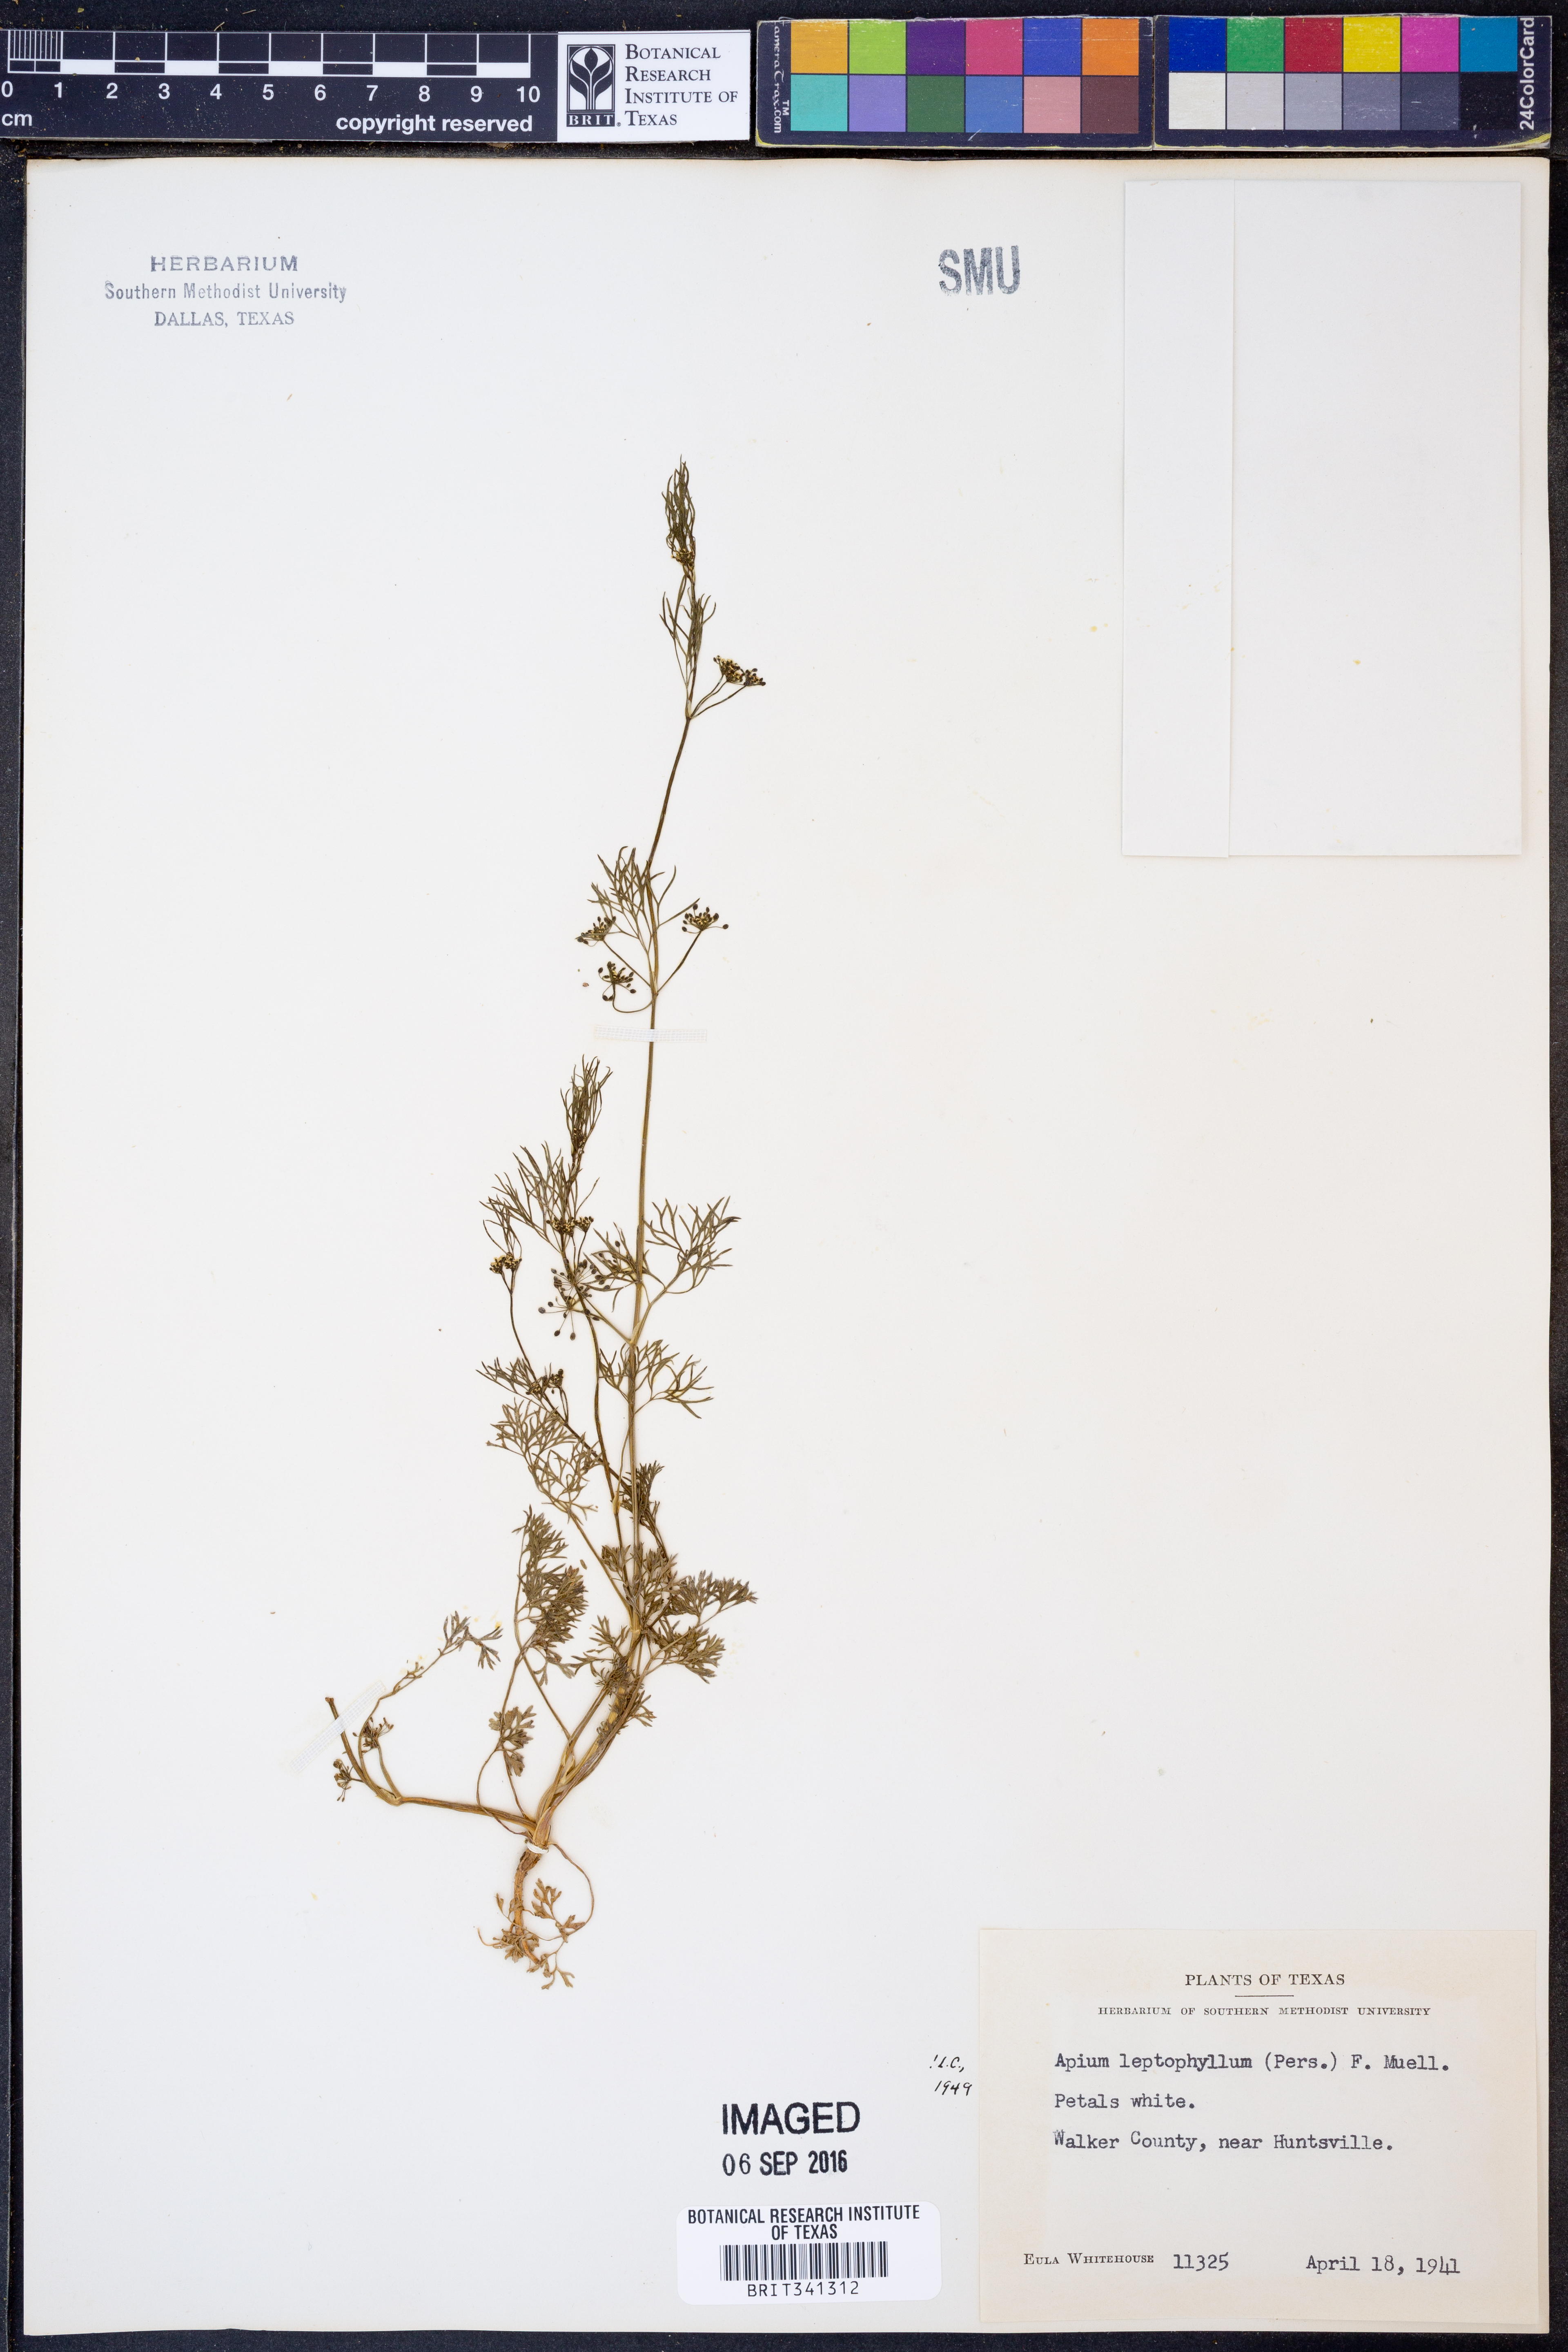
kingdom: Plantae
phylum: Tracheophyta
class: Magnoliopsida
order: Apiales
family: Apiaceae
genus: Cyclospermum
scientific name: Cyclospermum leptophyllum
